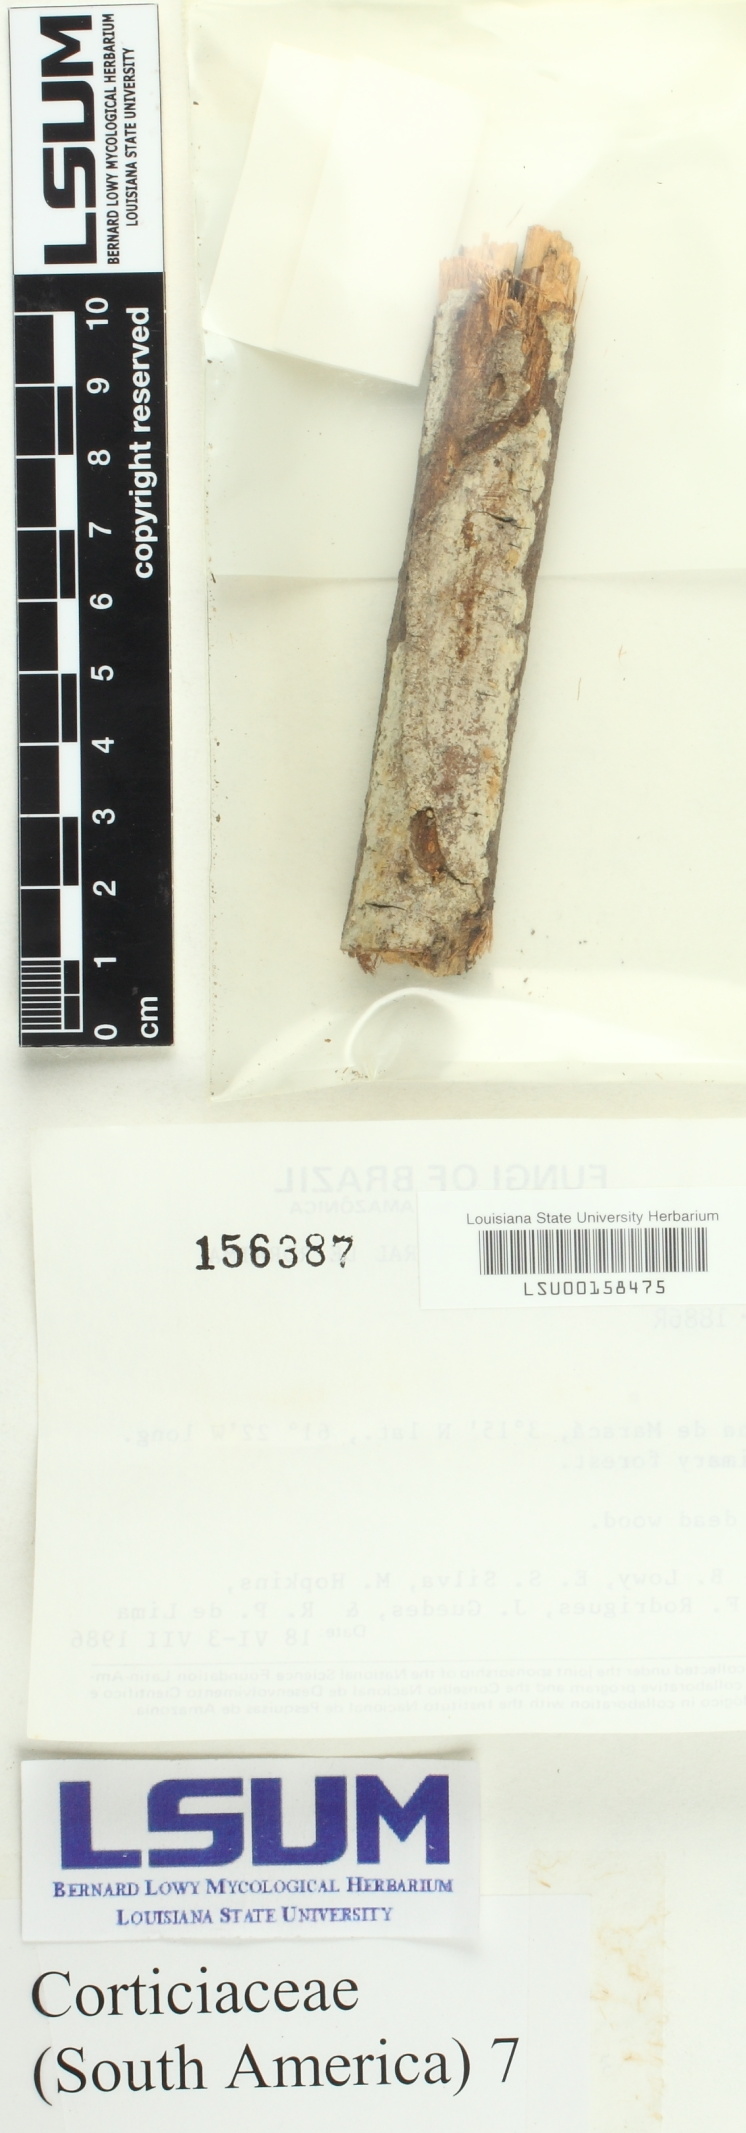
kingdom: Fungi
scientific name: Fungi
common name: Fungi
